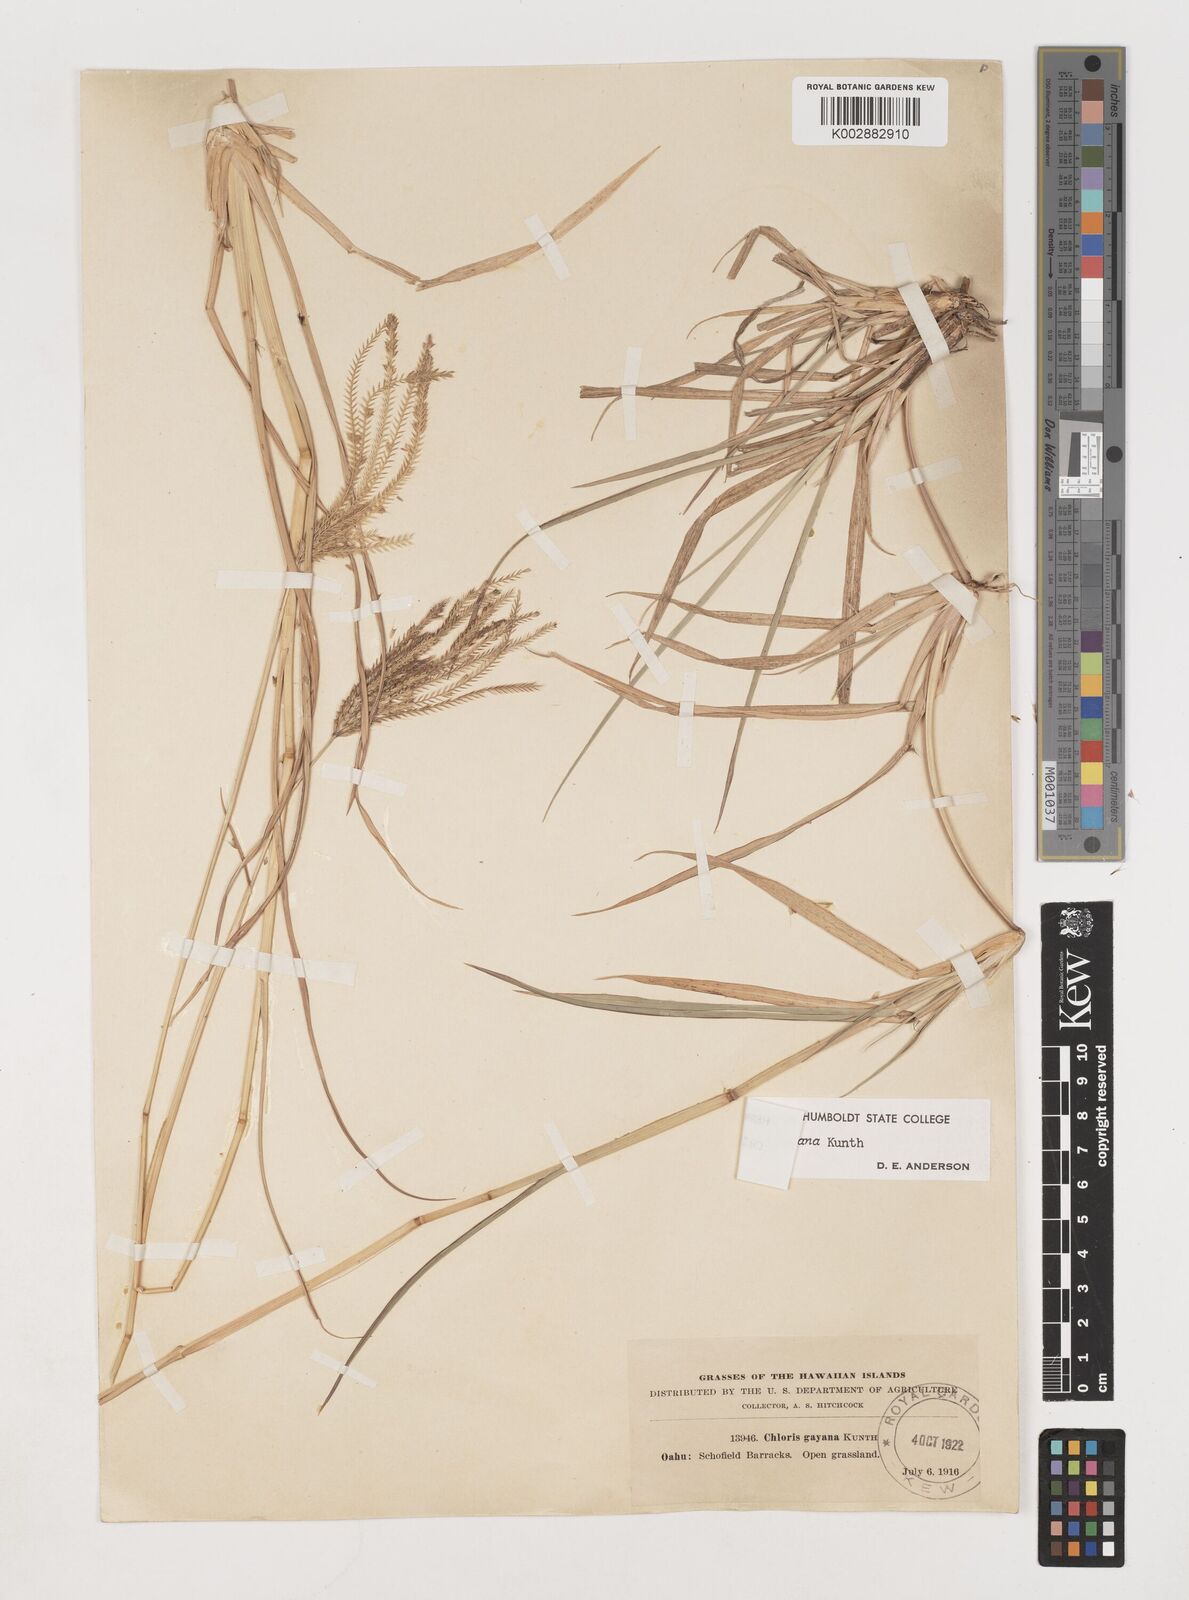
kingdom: Plantae
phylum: Tracheophyta
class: Liliopsida
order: Poales
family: Poaceae
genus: Chloris
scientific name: Chloris gayana
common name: Rhodes grass
